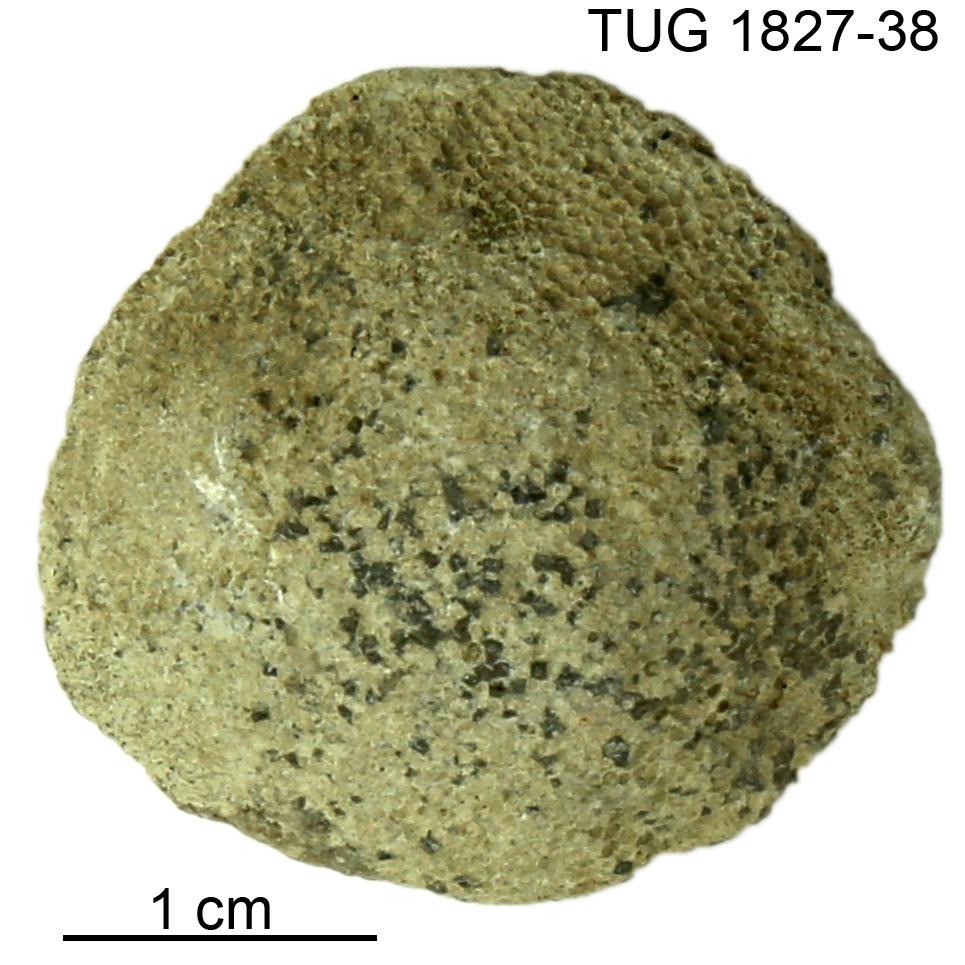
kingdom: Animalia
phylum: Bryozoa
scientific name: Bryozoa
